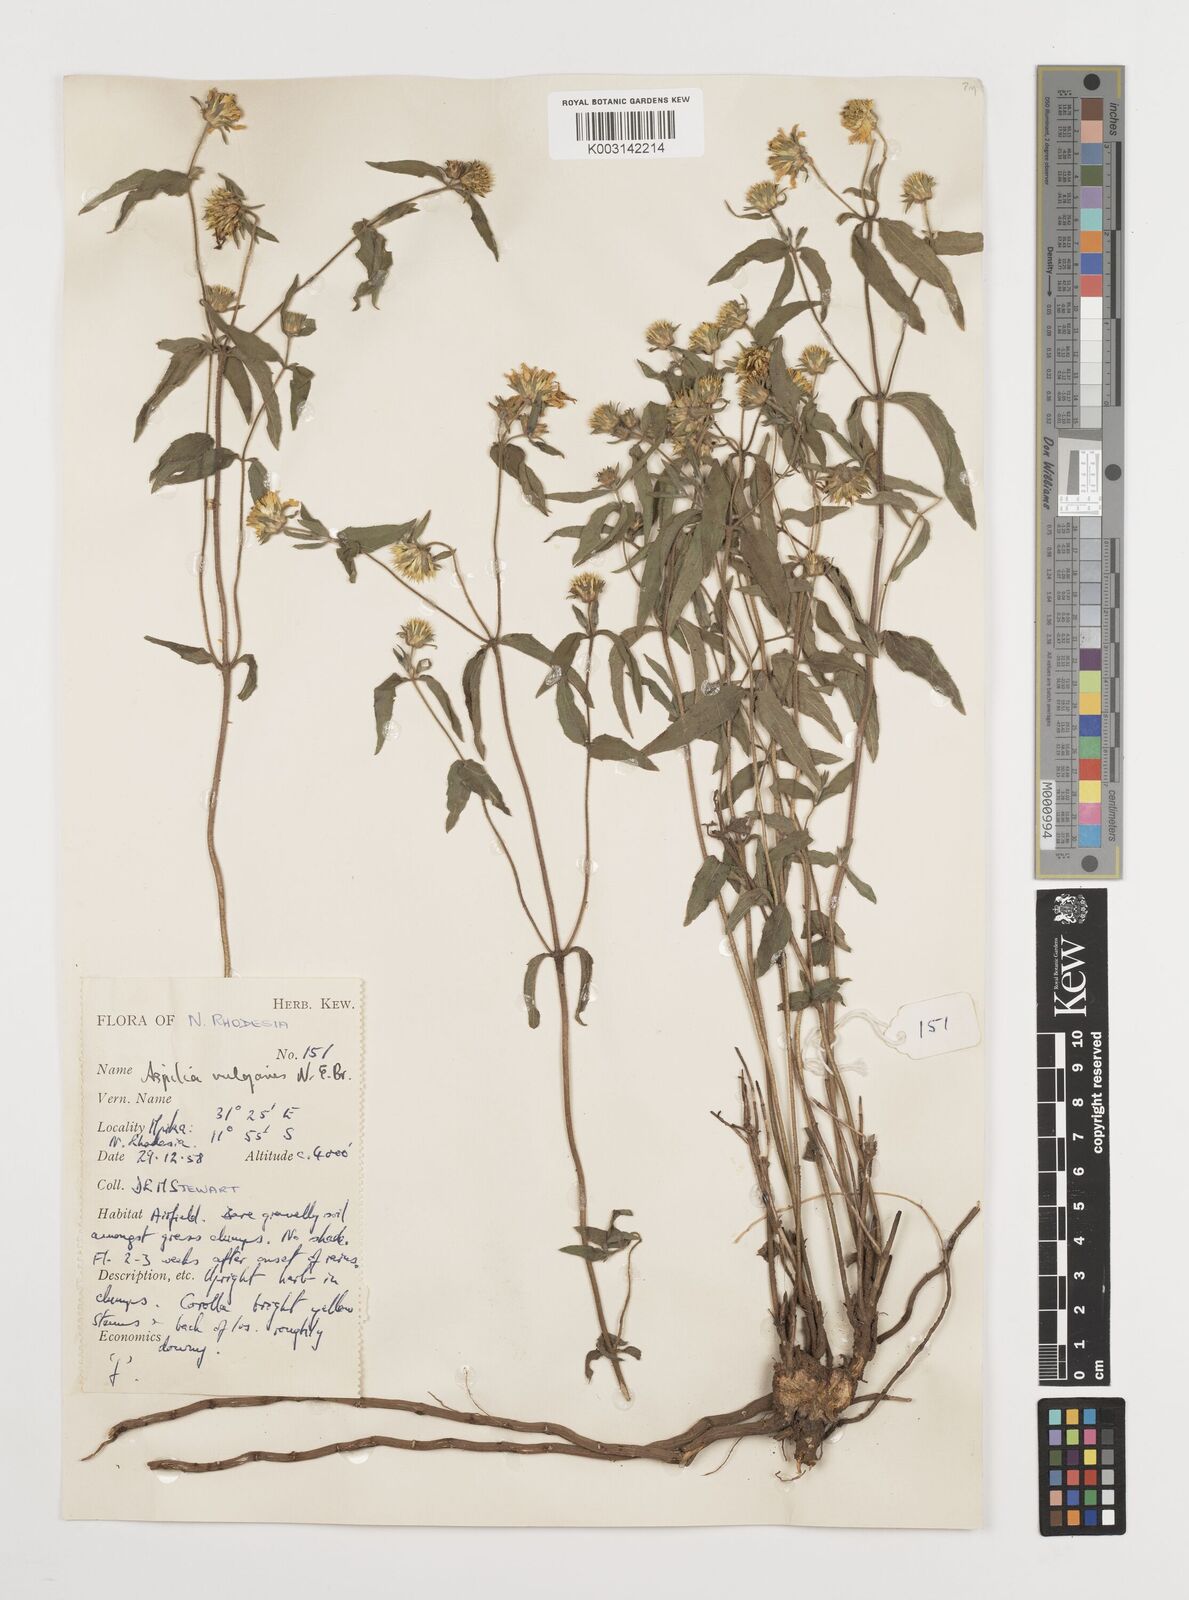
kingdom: Plantae
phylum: Tracheophyta
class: Magnoliopsida
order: Asterales
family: Asteraceae
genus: Aspilia
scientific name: Aspilia pluriseta
